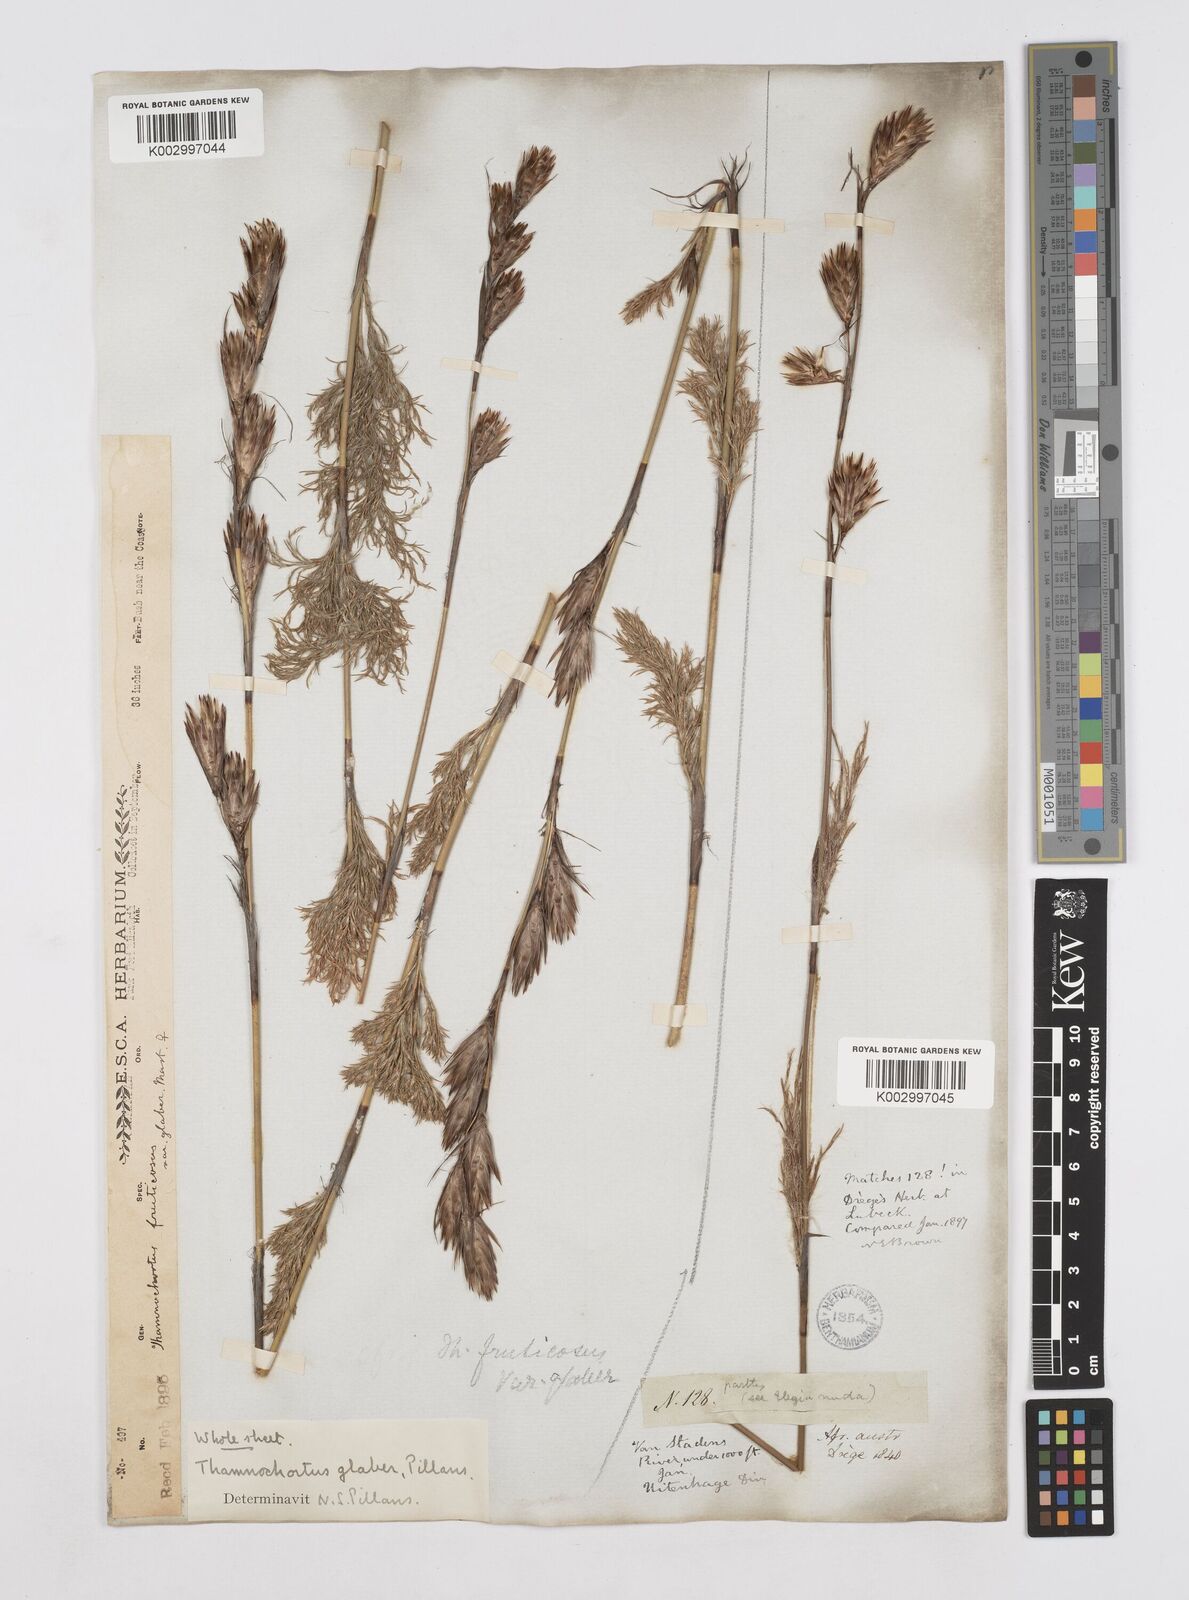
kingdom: Plantae
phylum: Tracheophyta
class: Liliopsida
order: Poales
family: Restionaceae
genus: Thamnochortus
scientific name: Thamnochortus glaber
